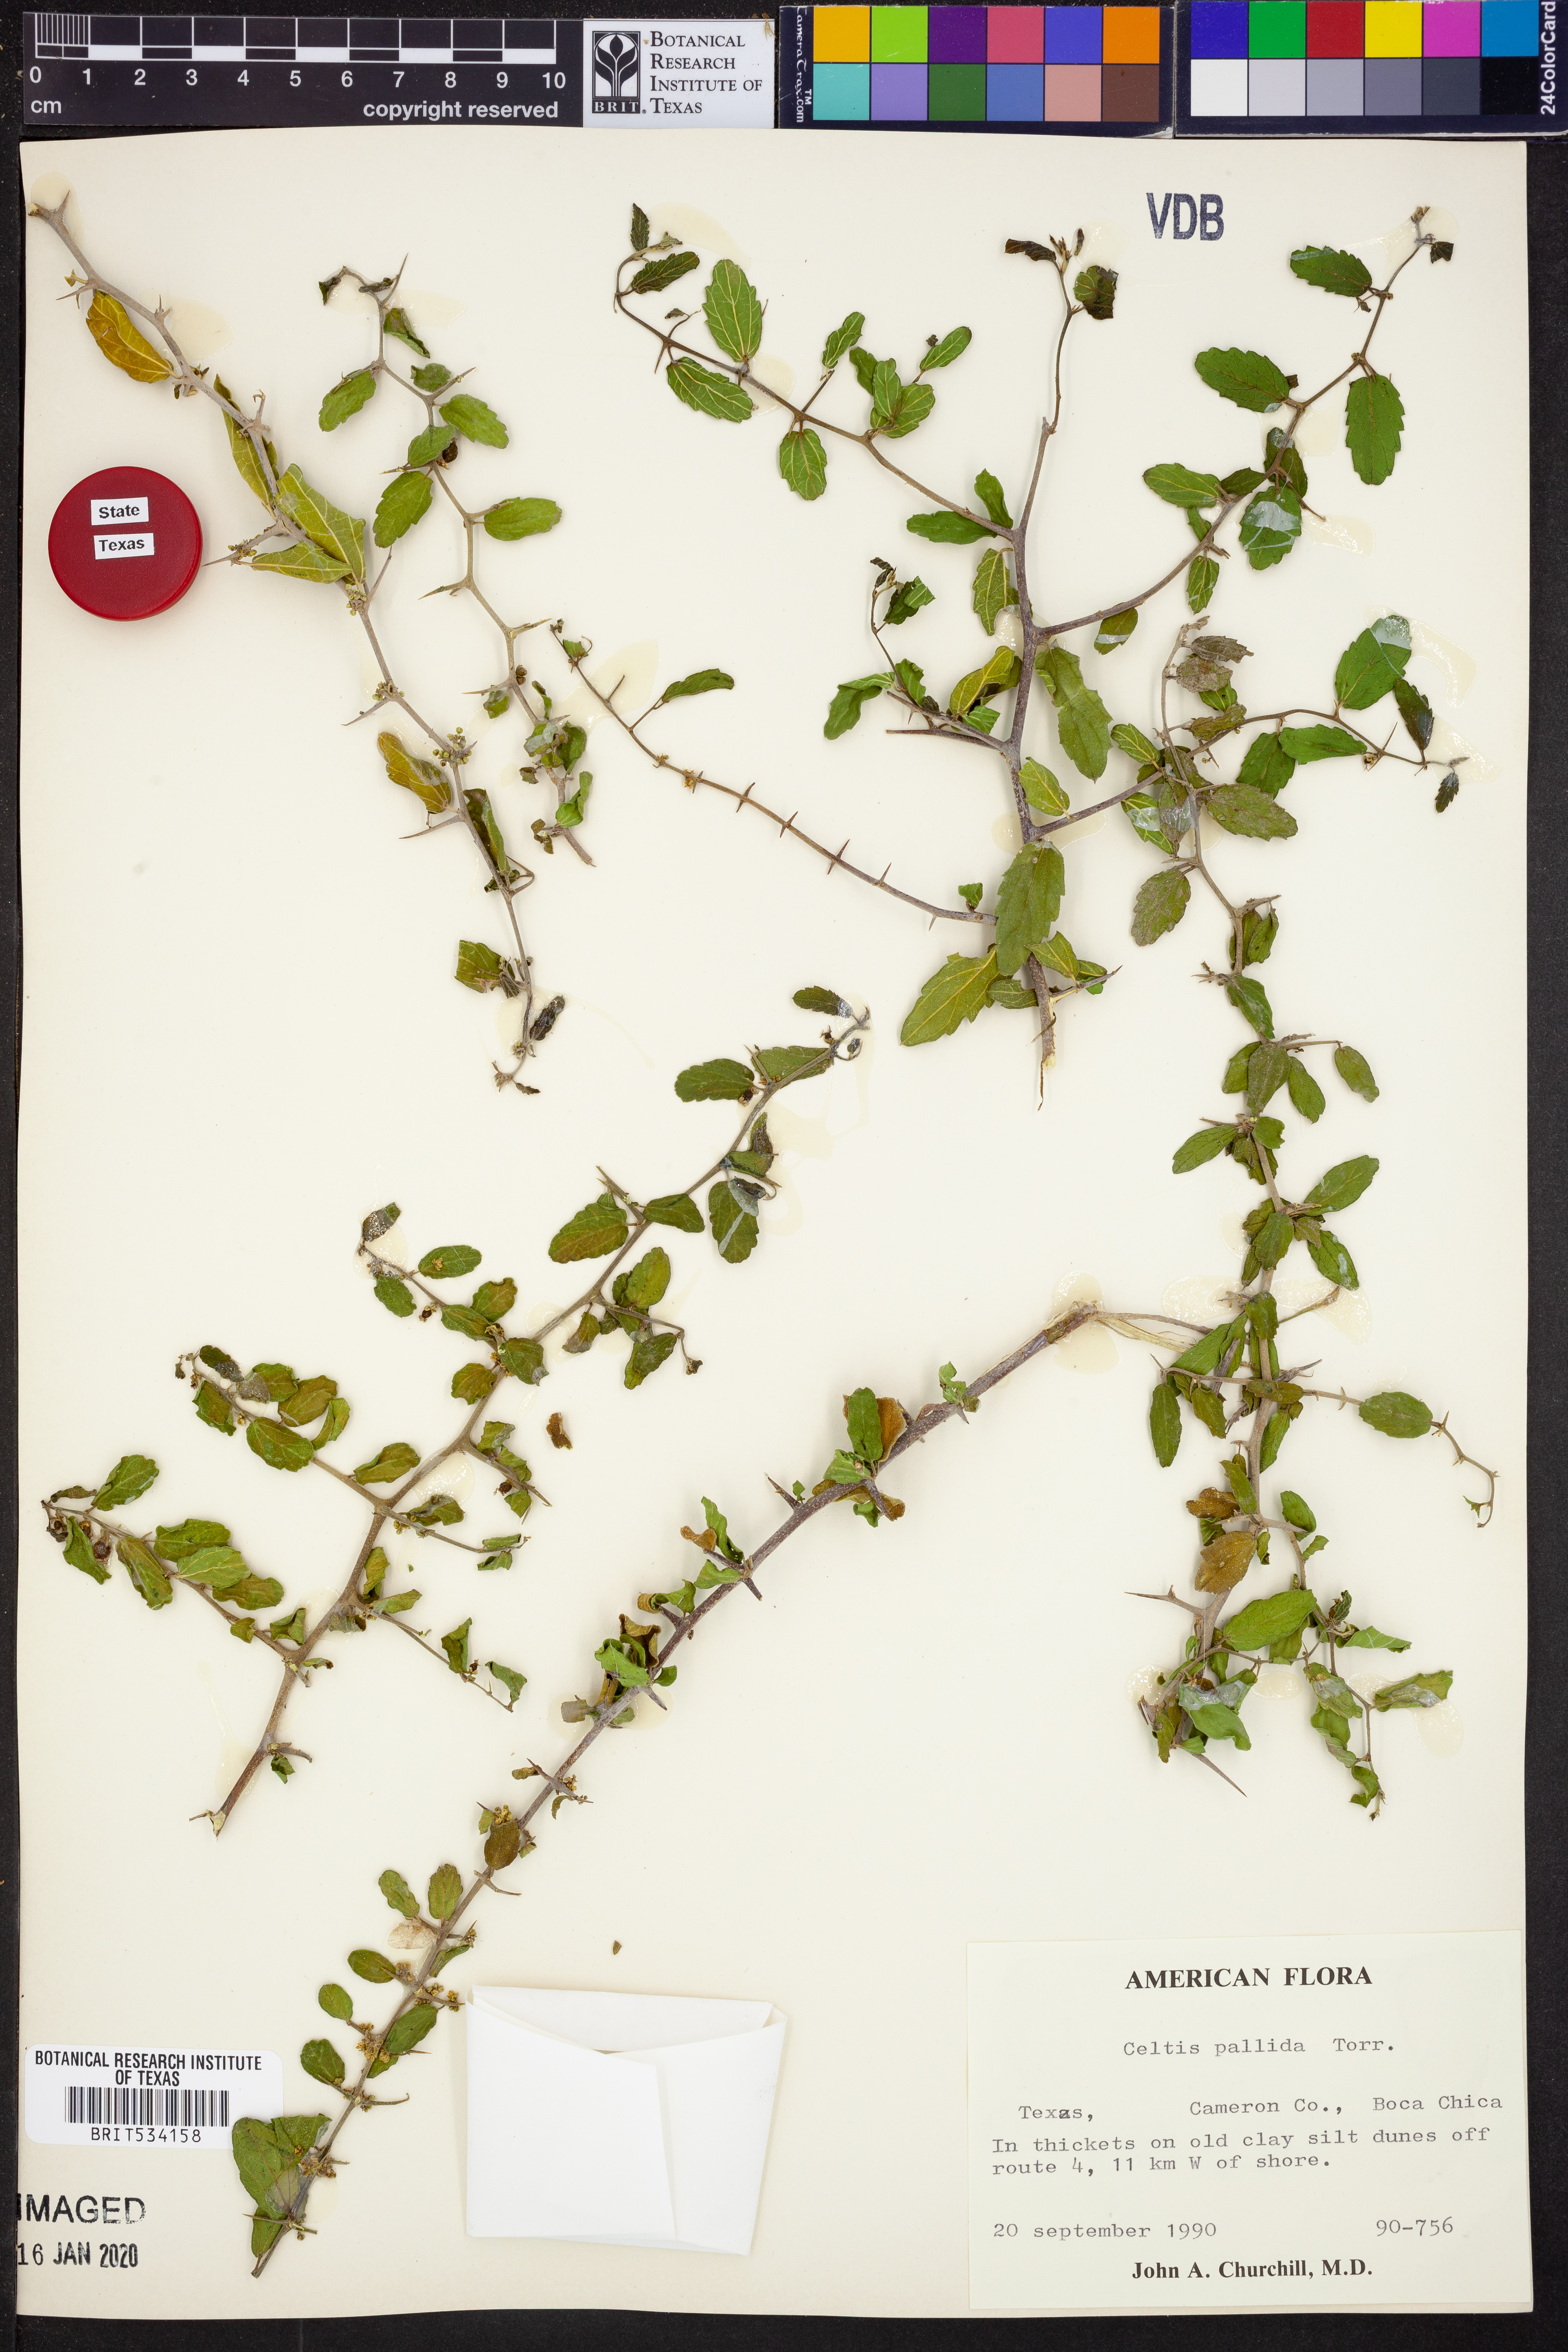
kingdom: Plantae
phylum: Tracheophyta
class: Magnoliopsida
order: Rosales
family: Cannabaceae
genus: Celtis
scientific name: Celtis pallida
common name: Desert hackberry
